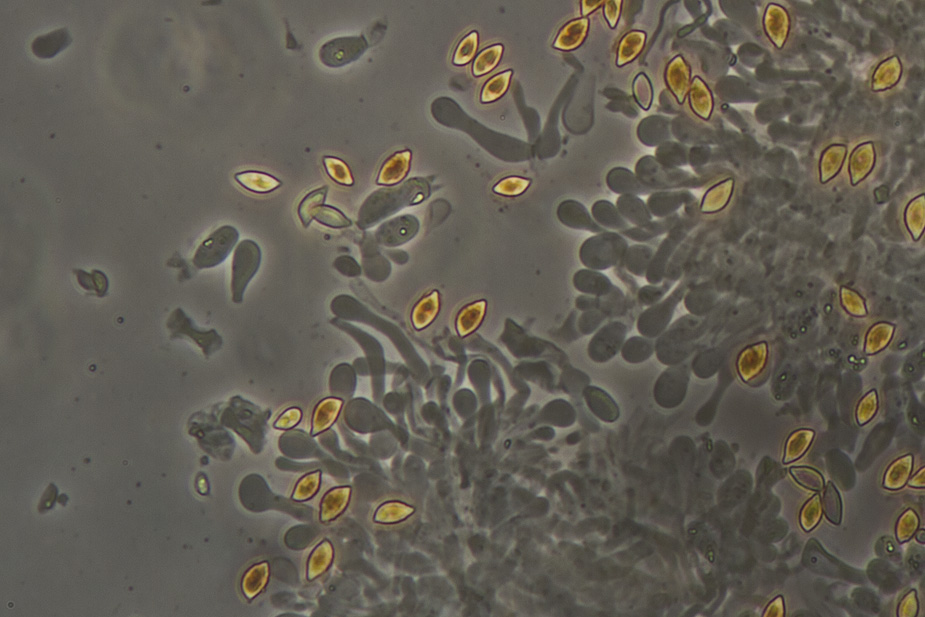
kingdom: Fungi
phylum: Basidiomycota
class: Agaricomycetes
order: Agaricales
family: Hymenogastraceae
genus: Naucoria
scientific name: Naucoria bohemica
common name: birke-knaphat
